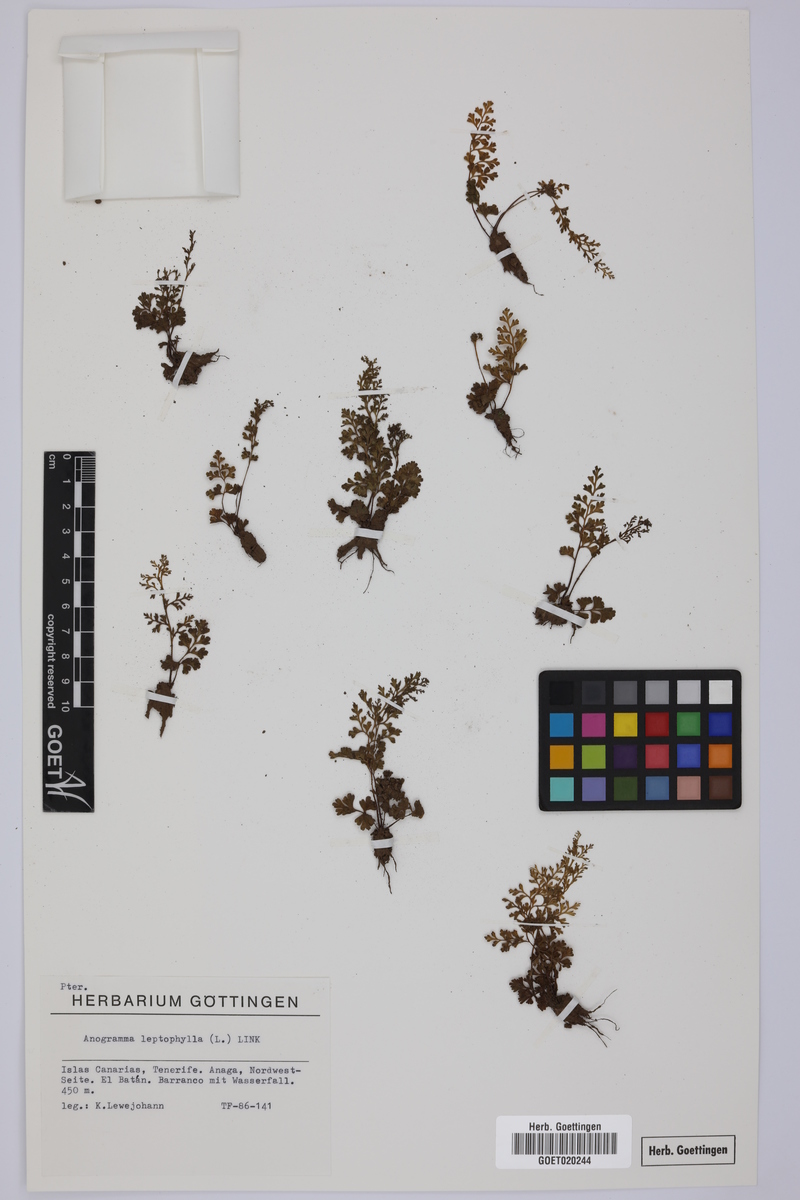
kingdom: Plantae
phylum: Tracheophyta
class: Polypodiopsida
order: Polypodiales
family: Pteridaceae
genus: Anogramma
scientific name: Anogramma leptophylla
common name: Jersey fern
